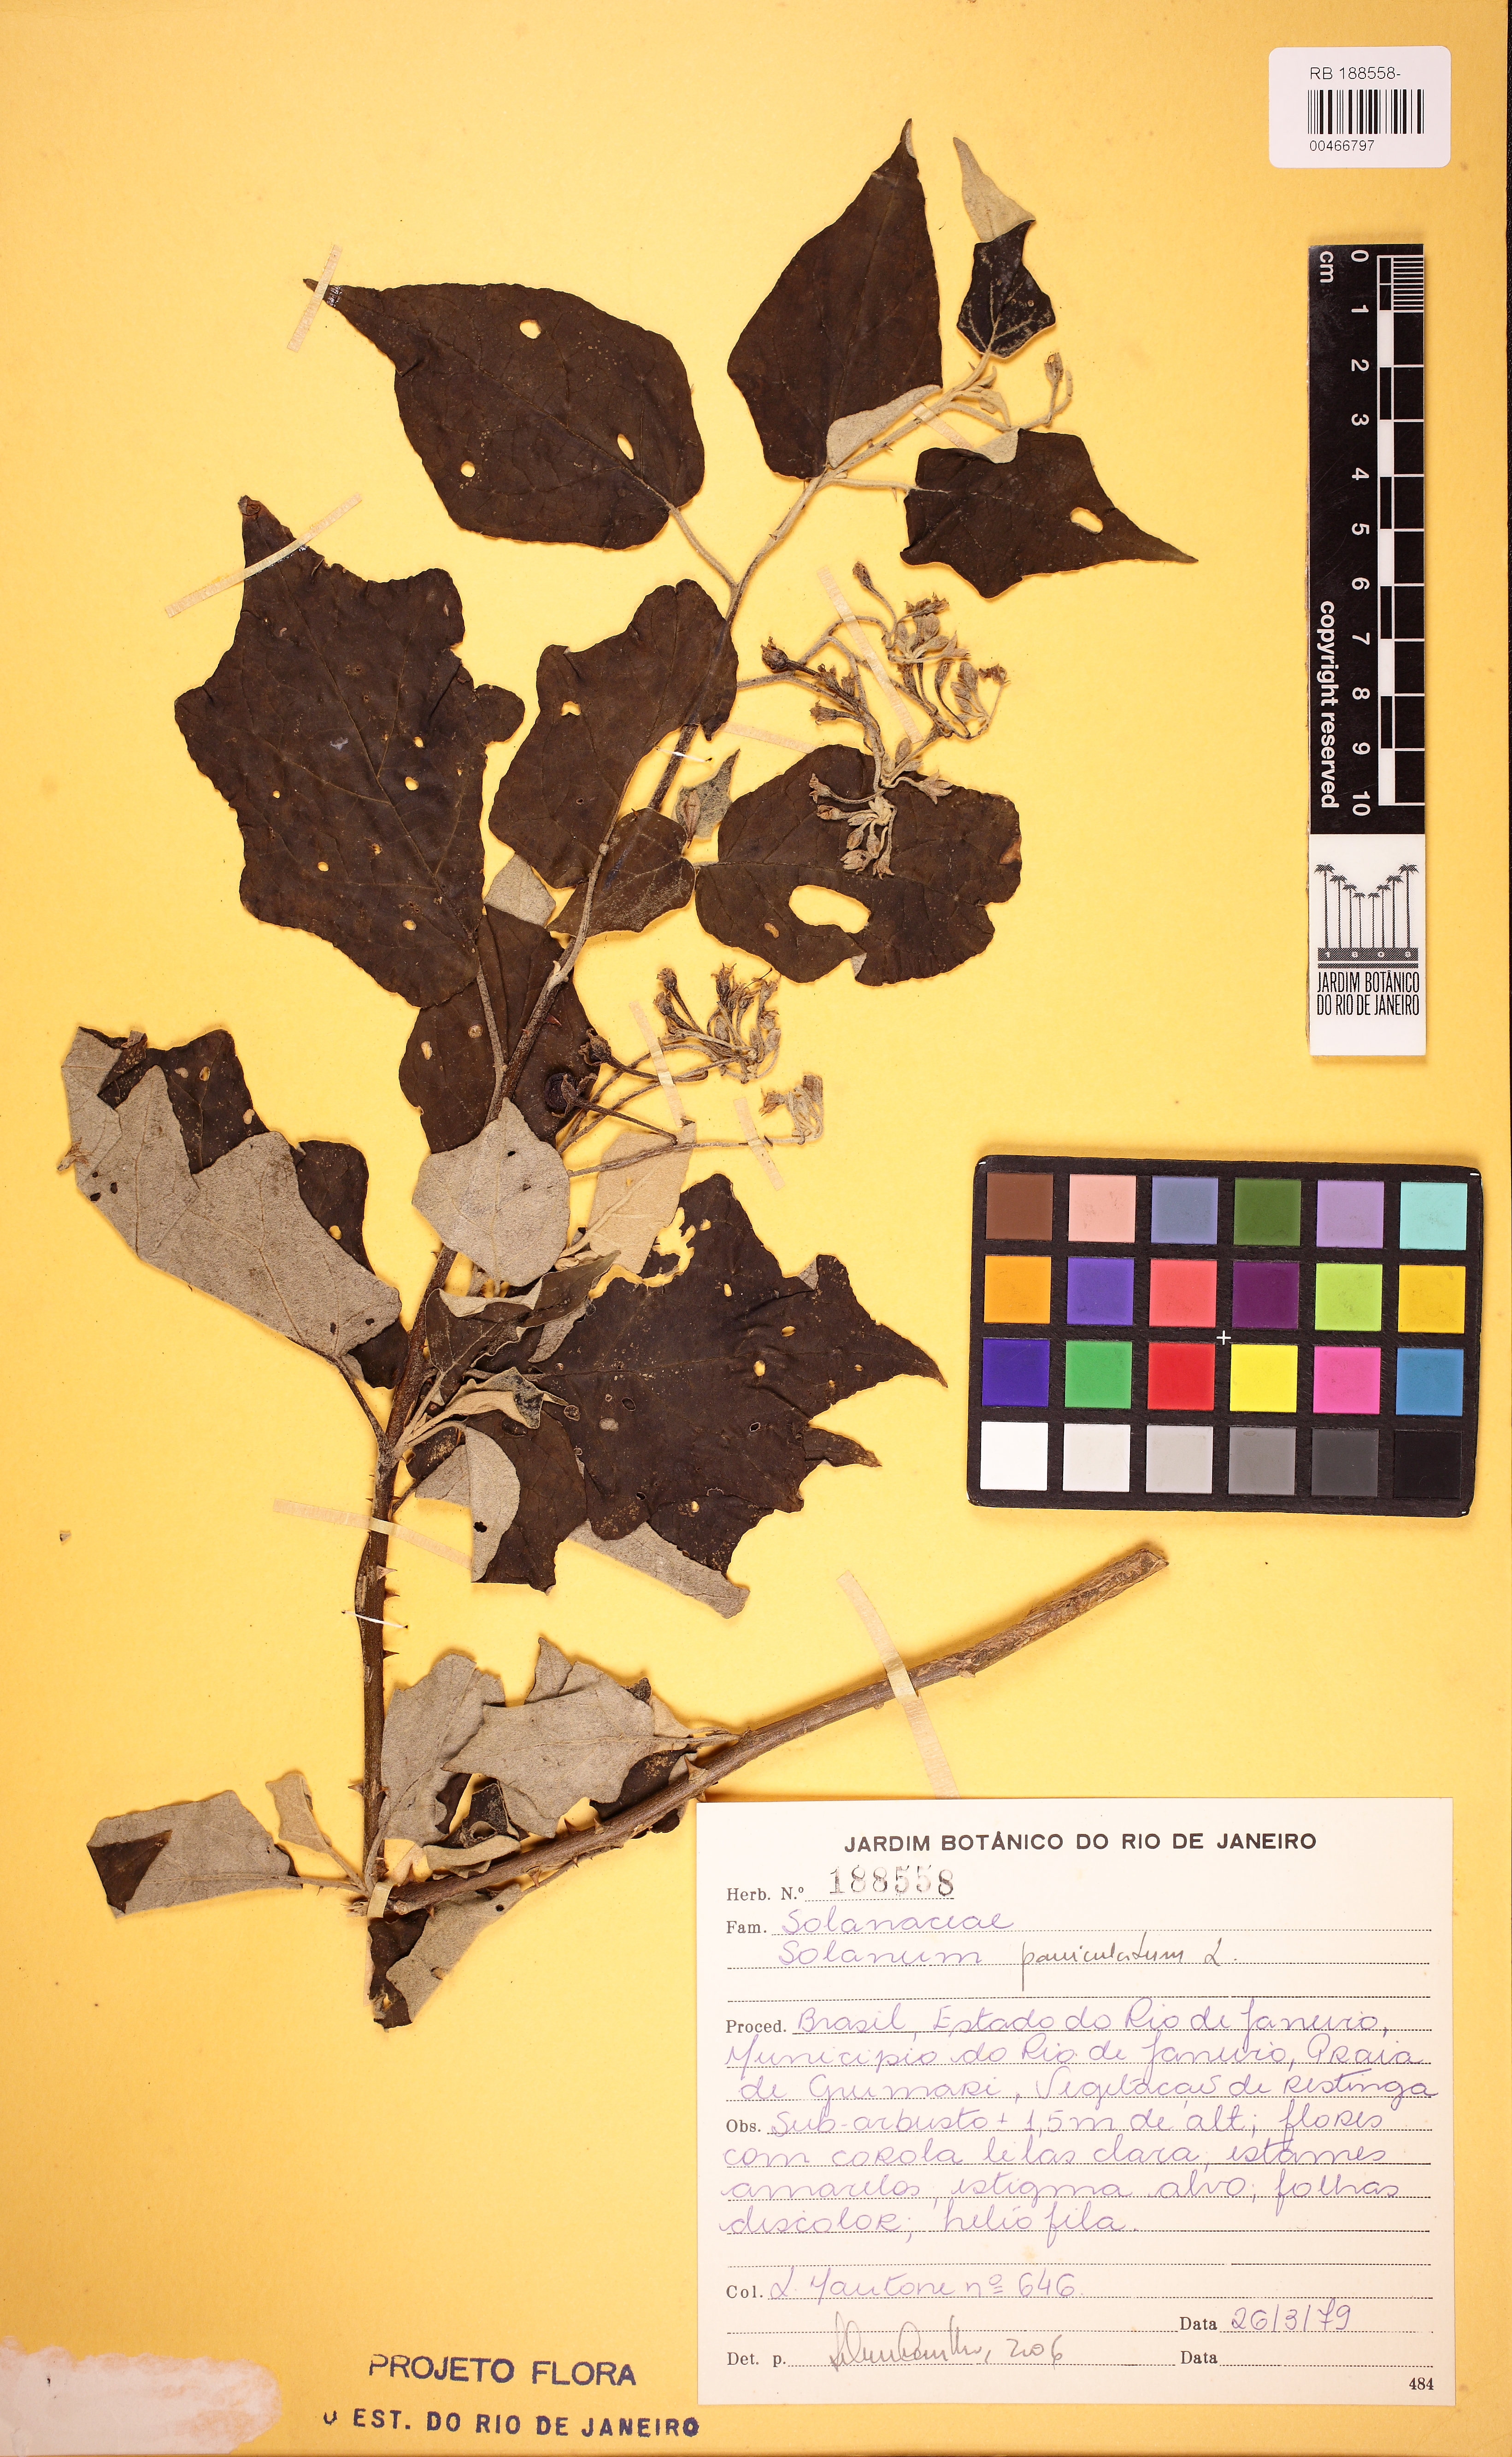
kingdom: Plantae
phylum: Tracheophyta
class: Magnoliopsida
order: Solanales
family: Solanaceae
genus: Solanum
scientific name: Solanum paniculatum
